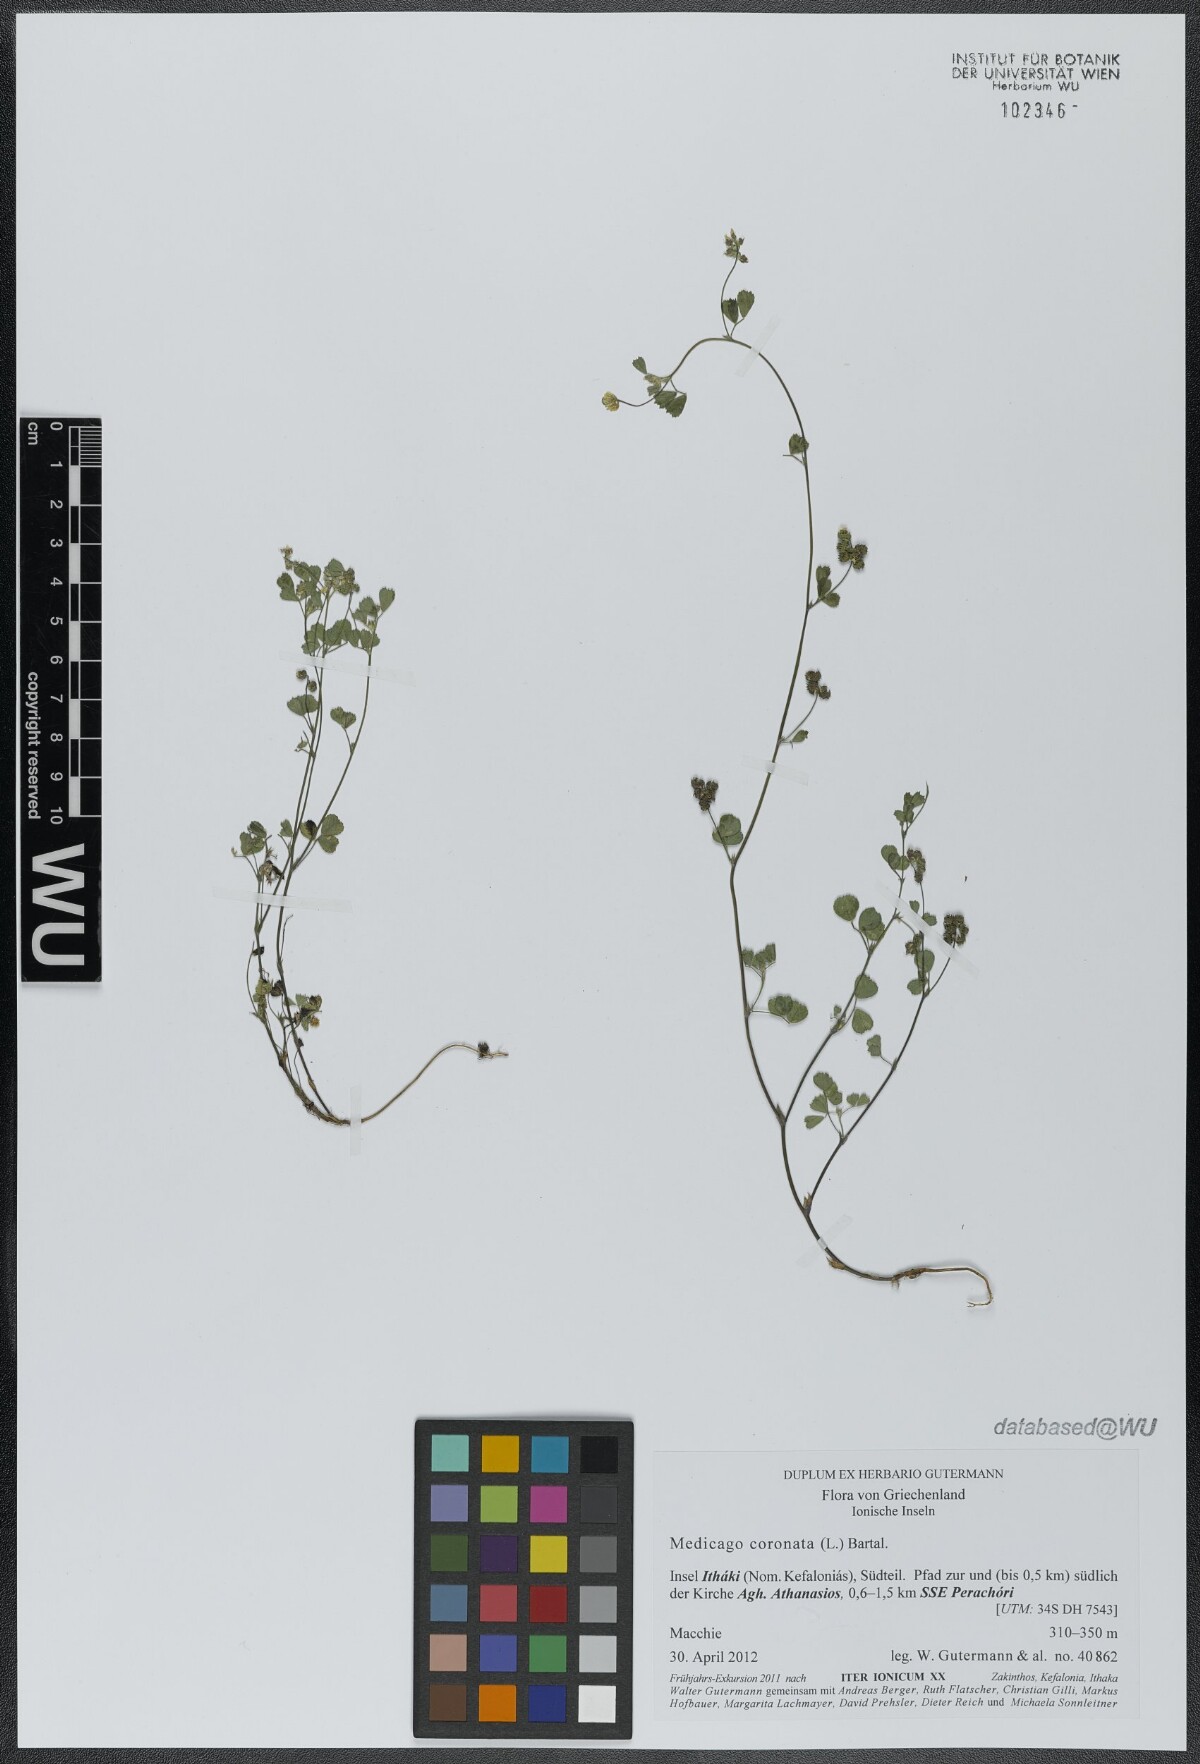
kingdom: Plantae
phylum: Tracheophyta
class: Magnoliopsida
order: Fabales
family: Fabaceae
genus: Medicago
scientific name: Medicago coronata
